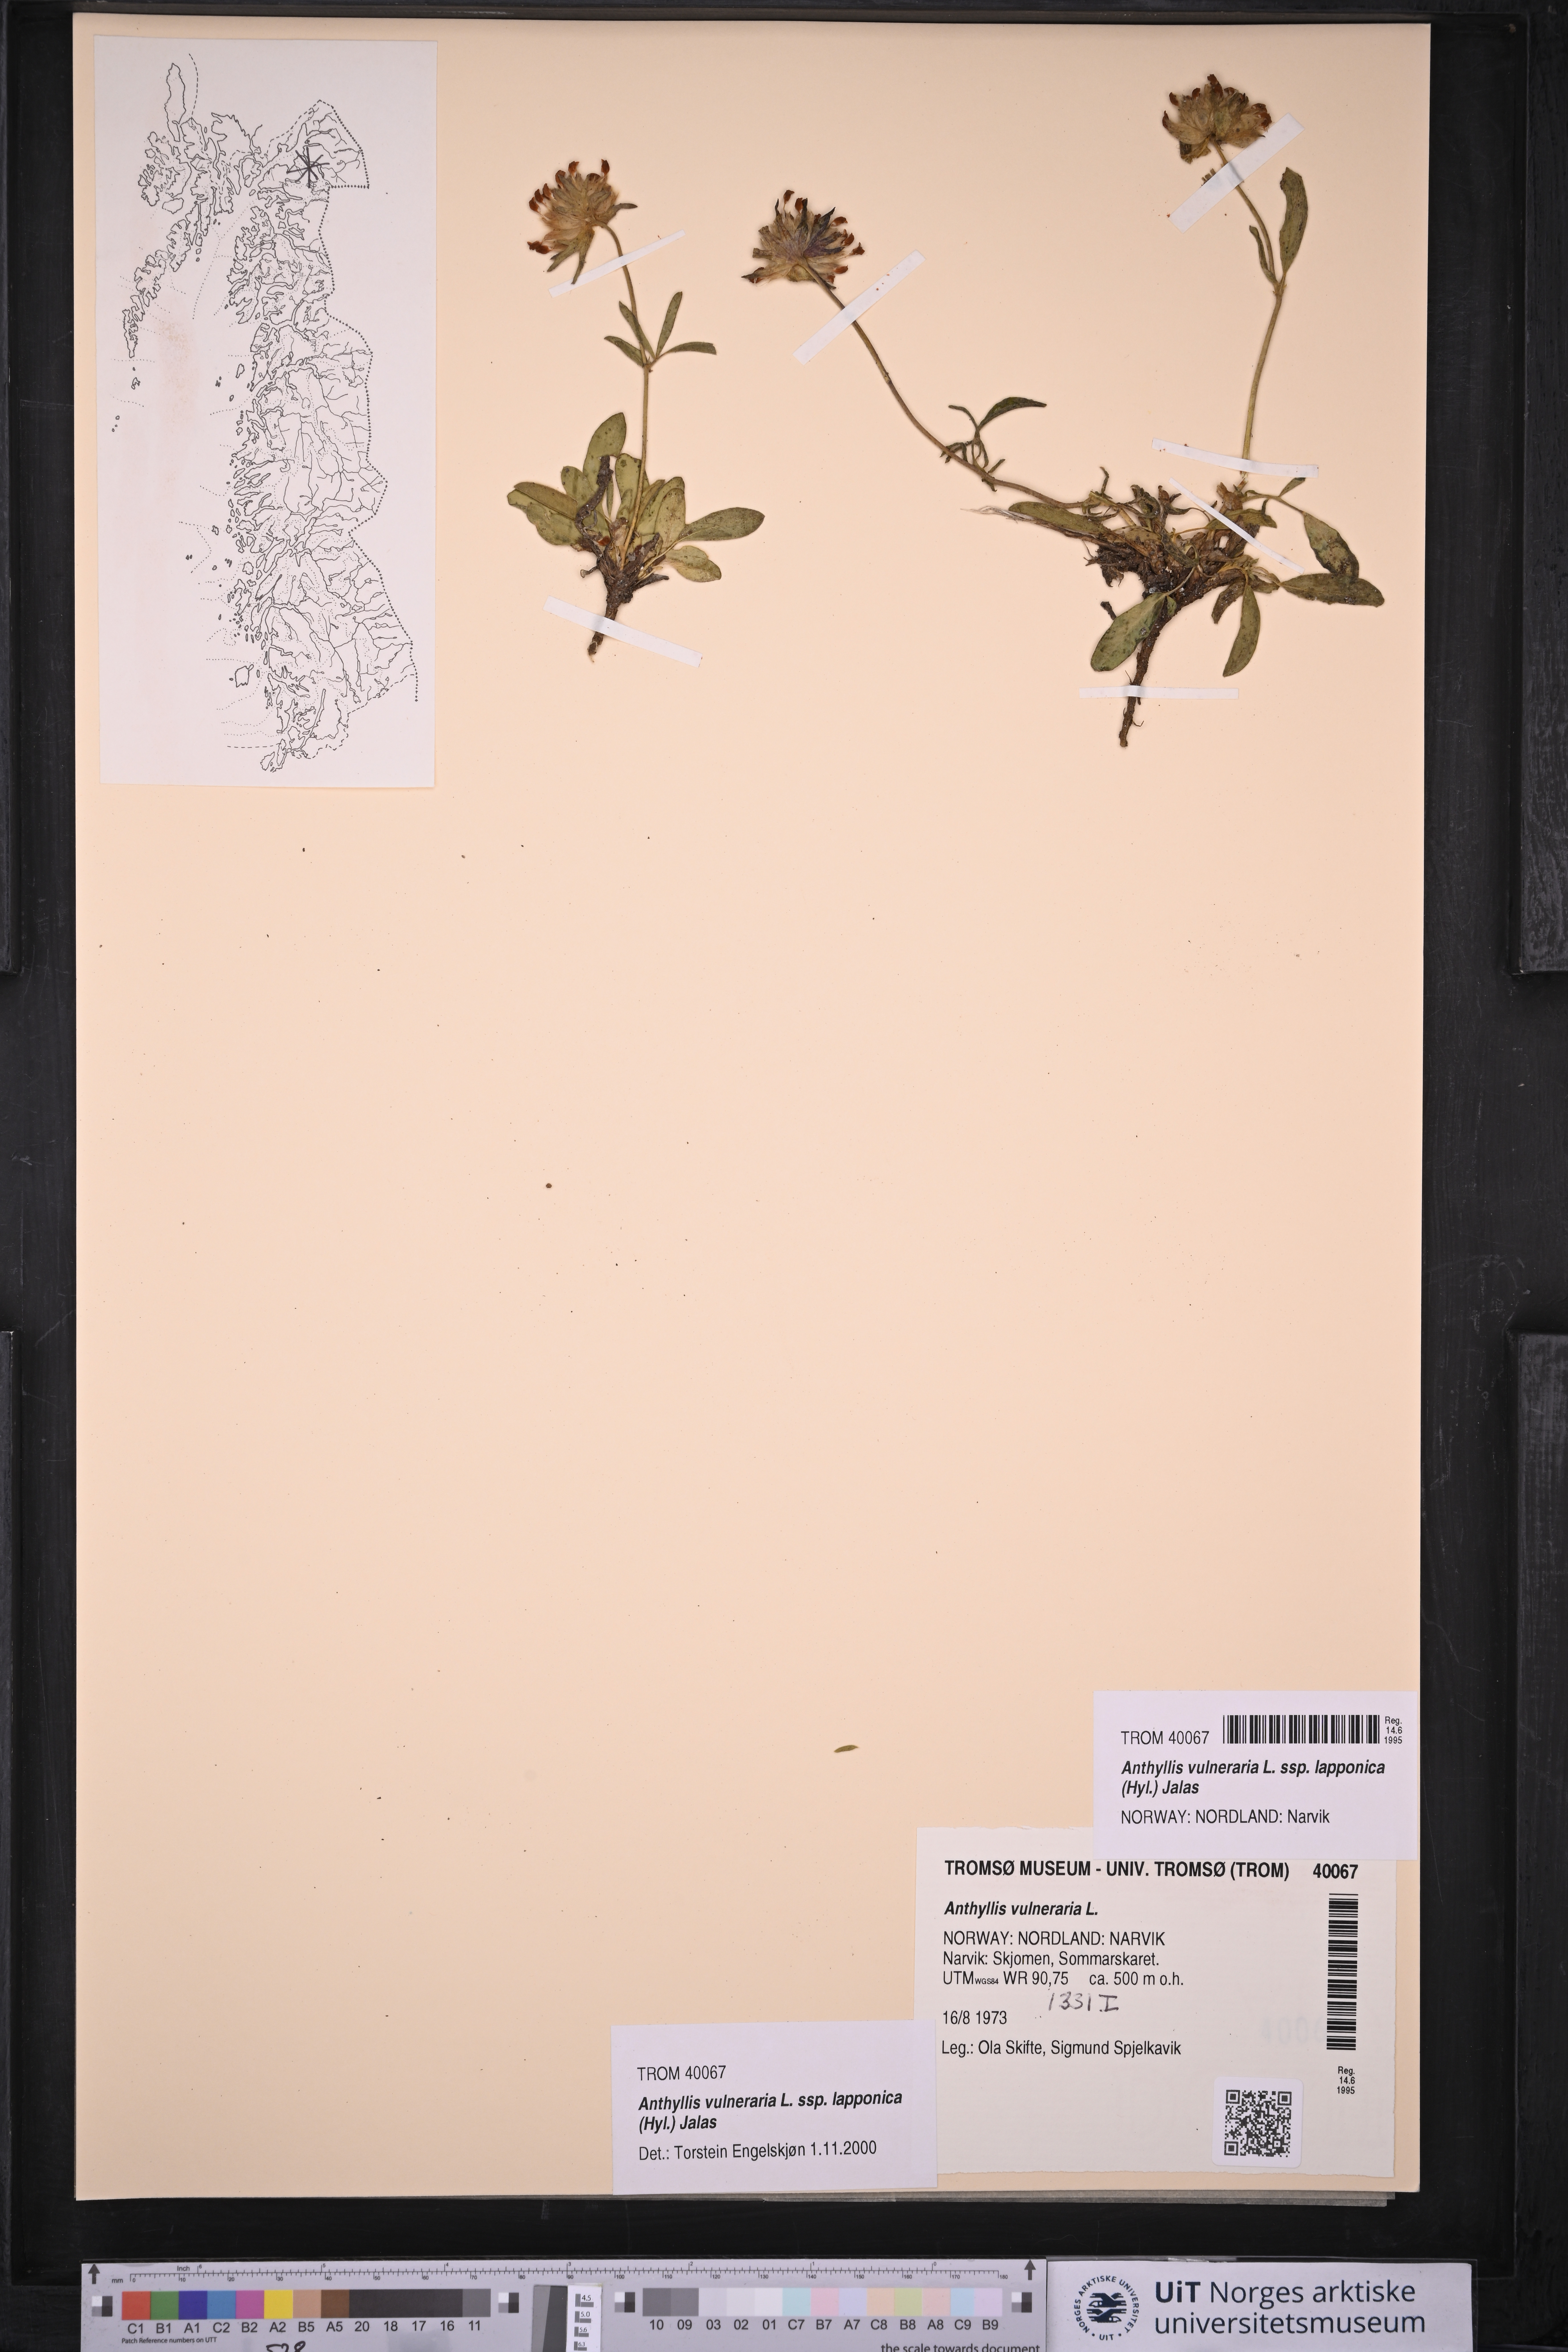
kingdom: Plantae
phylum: Tracheophyta
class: Magnoliopsida
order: Fabales
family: Fabaceae
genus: Anthyllis
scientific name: Anthyllis vulneraria
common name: Kidney vetch
